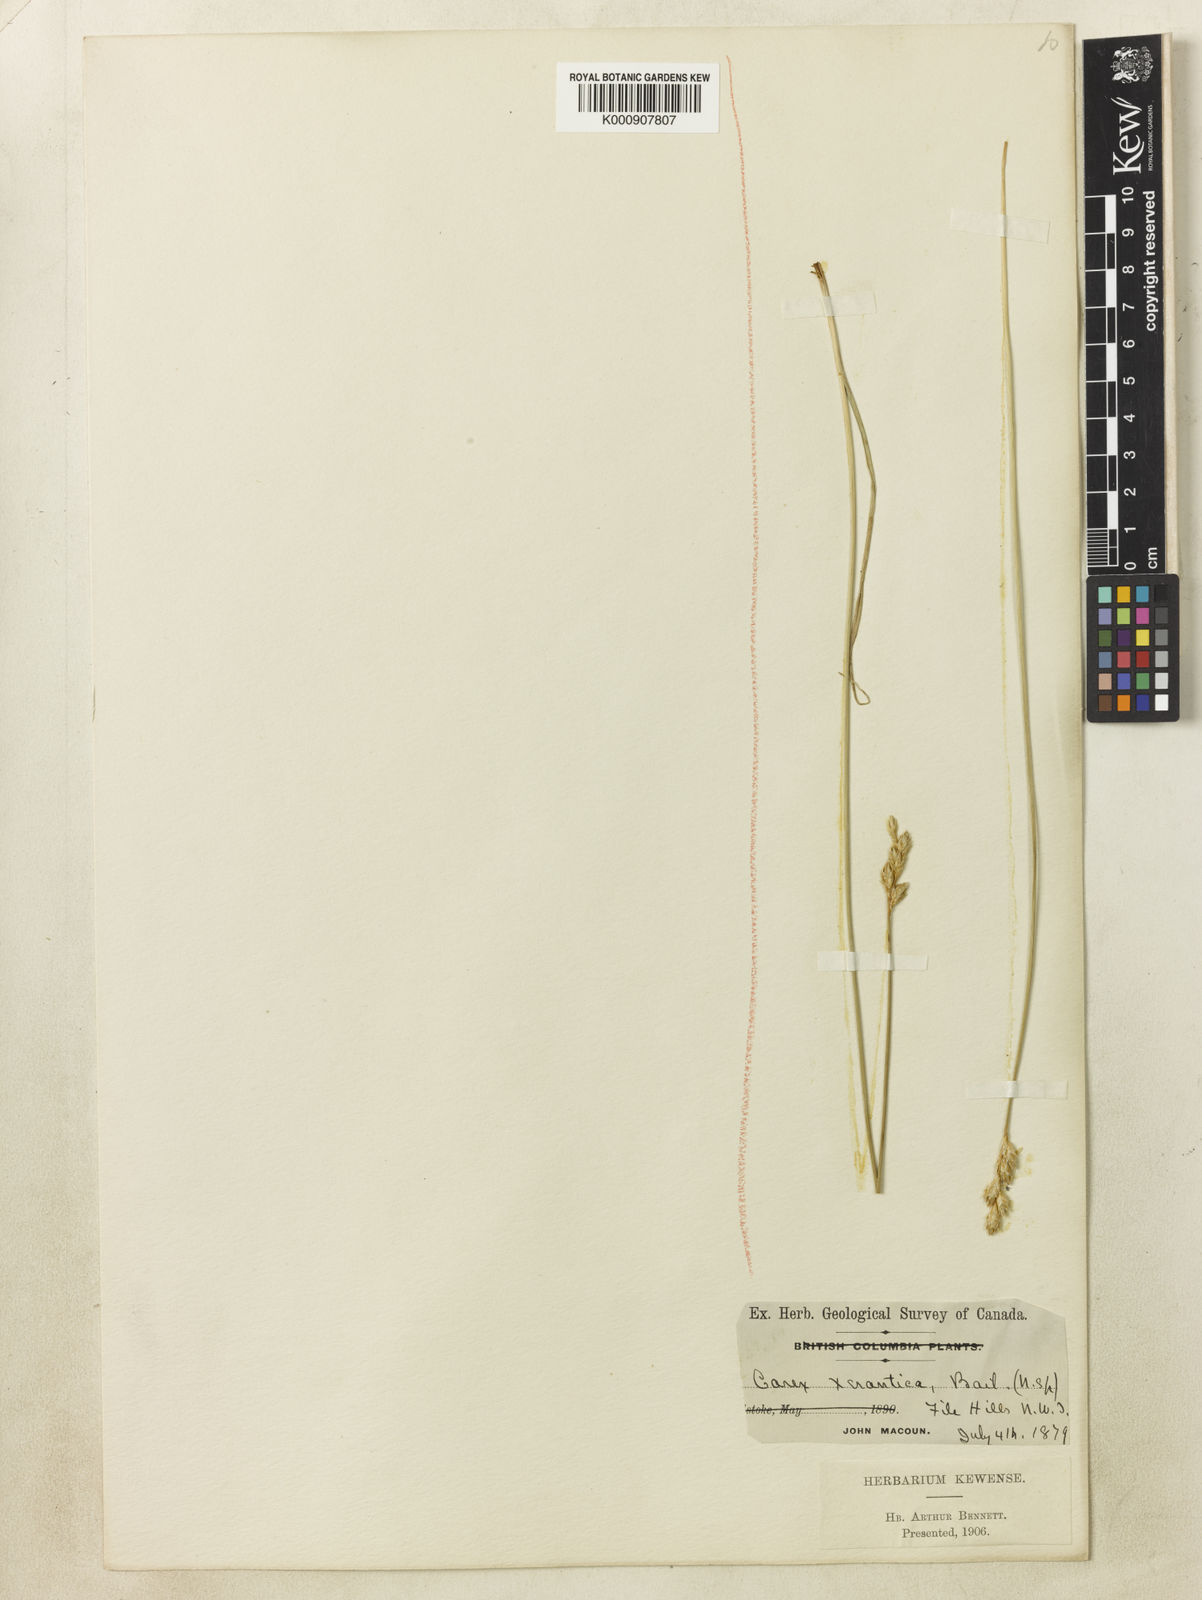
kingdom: Plantae
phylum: Tracheophyta
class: Magnoliopsida
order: Myrtales
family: Onagraceae
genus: Fuchsia
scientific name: Fuchsia regia
